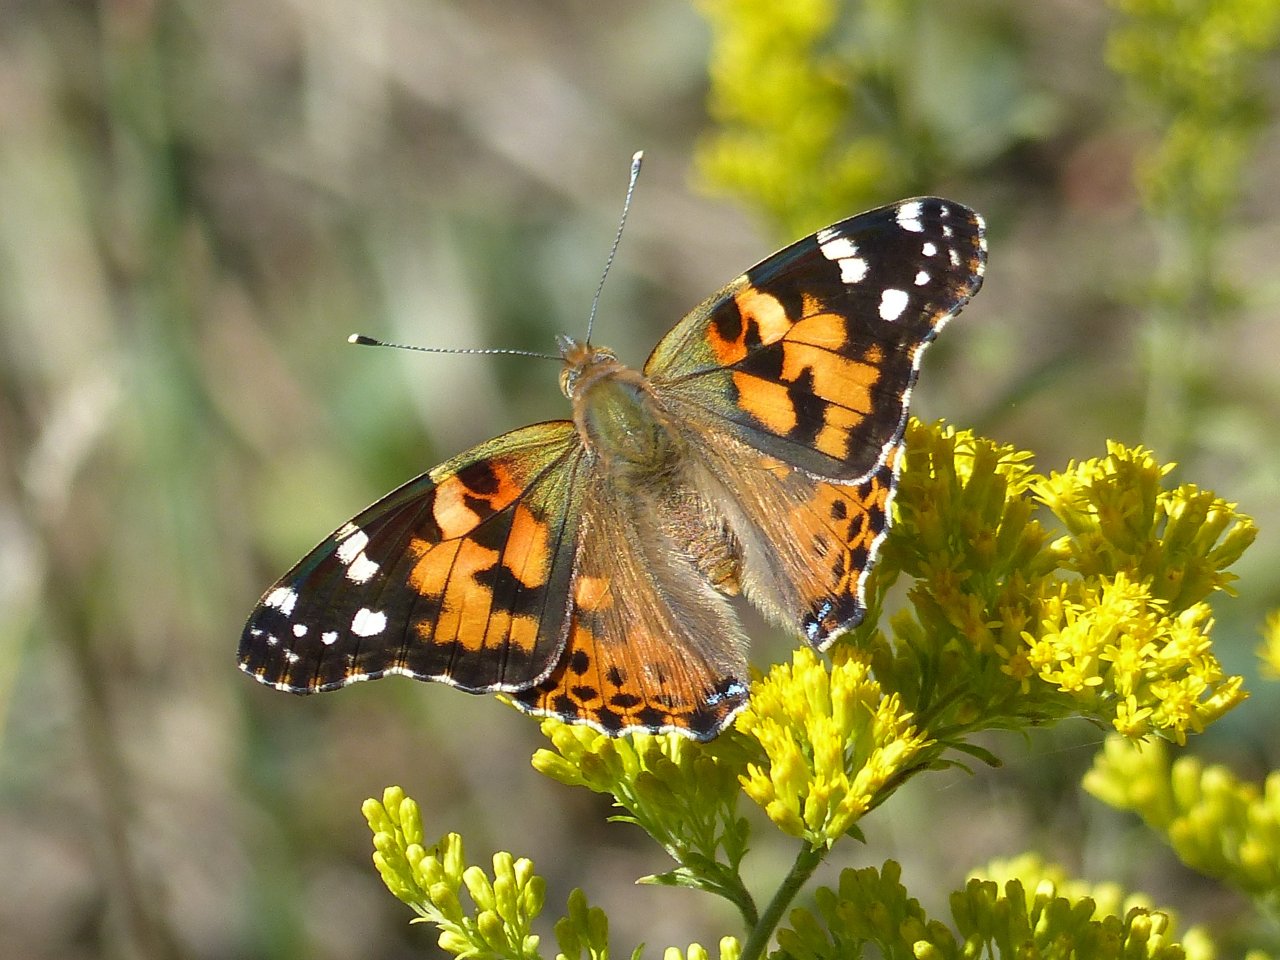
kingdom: Animalia
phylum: Arthropoda
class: Insecta
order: Lepidoptera
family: Nymphalidae
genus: Vanessa
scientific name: Vanessa cardui
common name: Painted Lady
